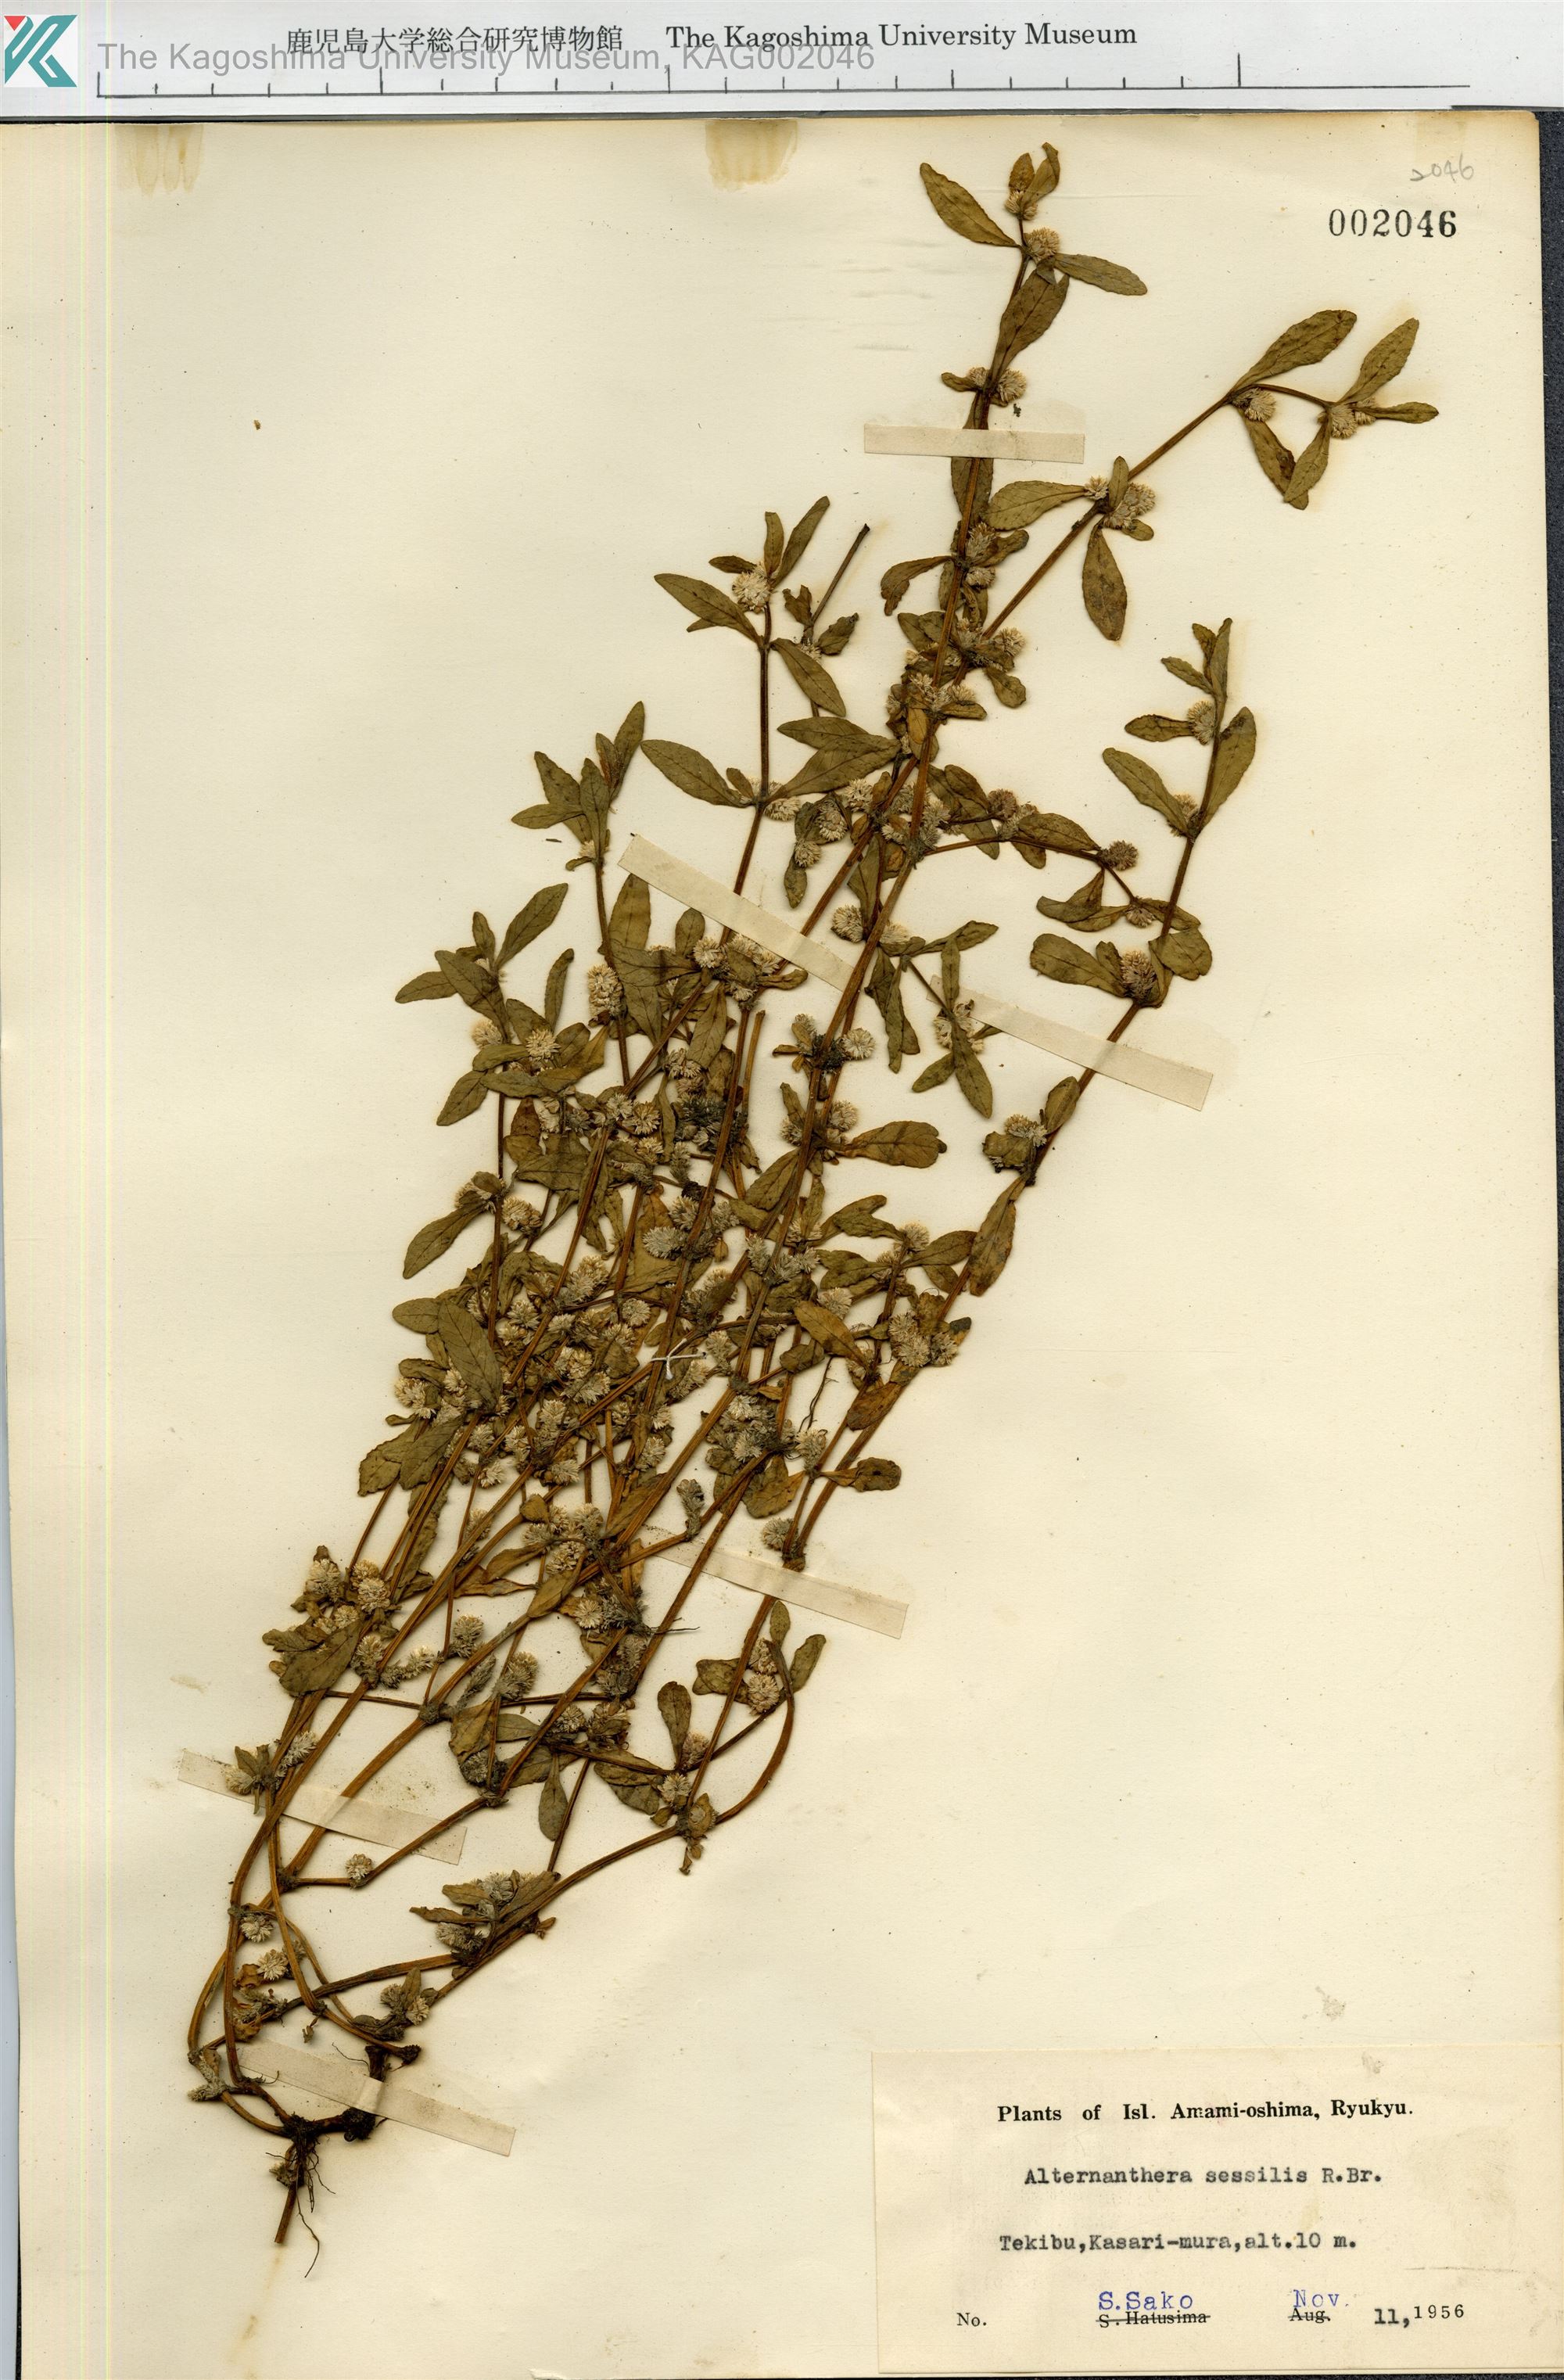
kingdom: Plantae
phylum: Tracheophyta
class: Magnoliopsida
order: Caryophyllales
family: Amaranthaceae
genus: Alternanthera
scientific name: Alternanthera sessilis
